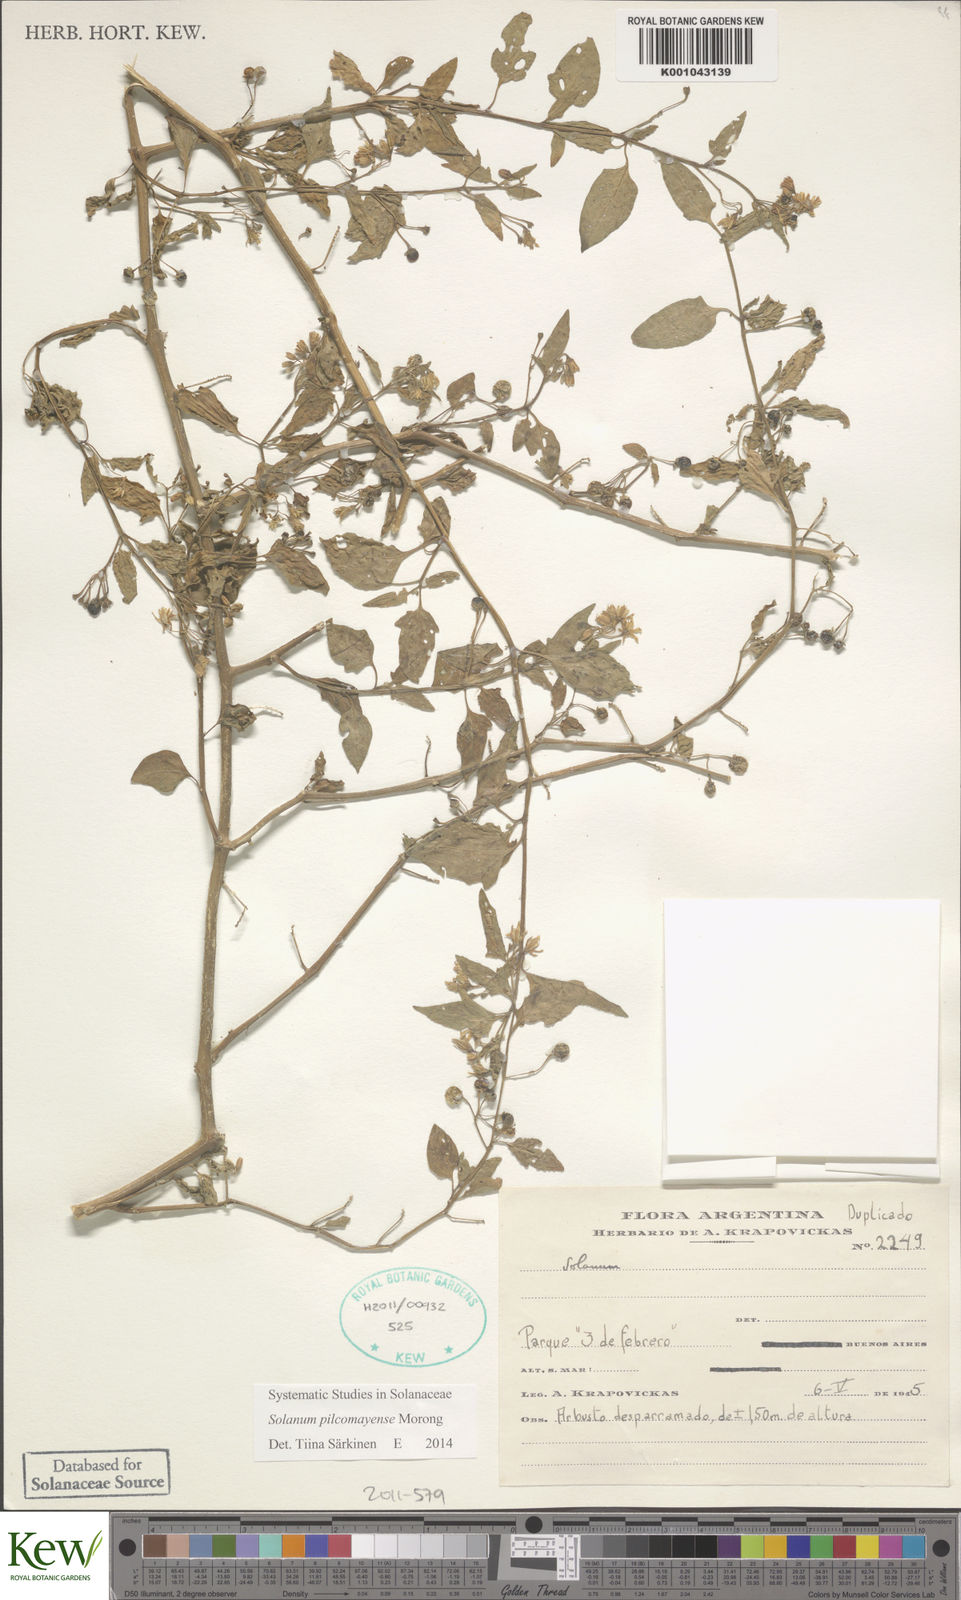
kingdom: Plantae
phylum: Tracheophyta
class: Magnoliopsida
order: Solanales
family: Solanaceae
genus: Solanum
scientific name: Solanum pilcomayense
